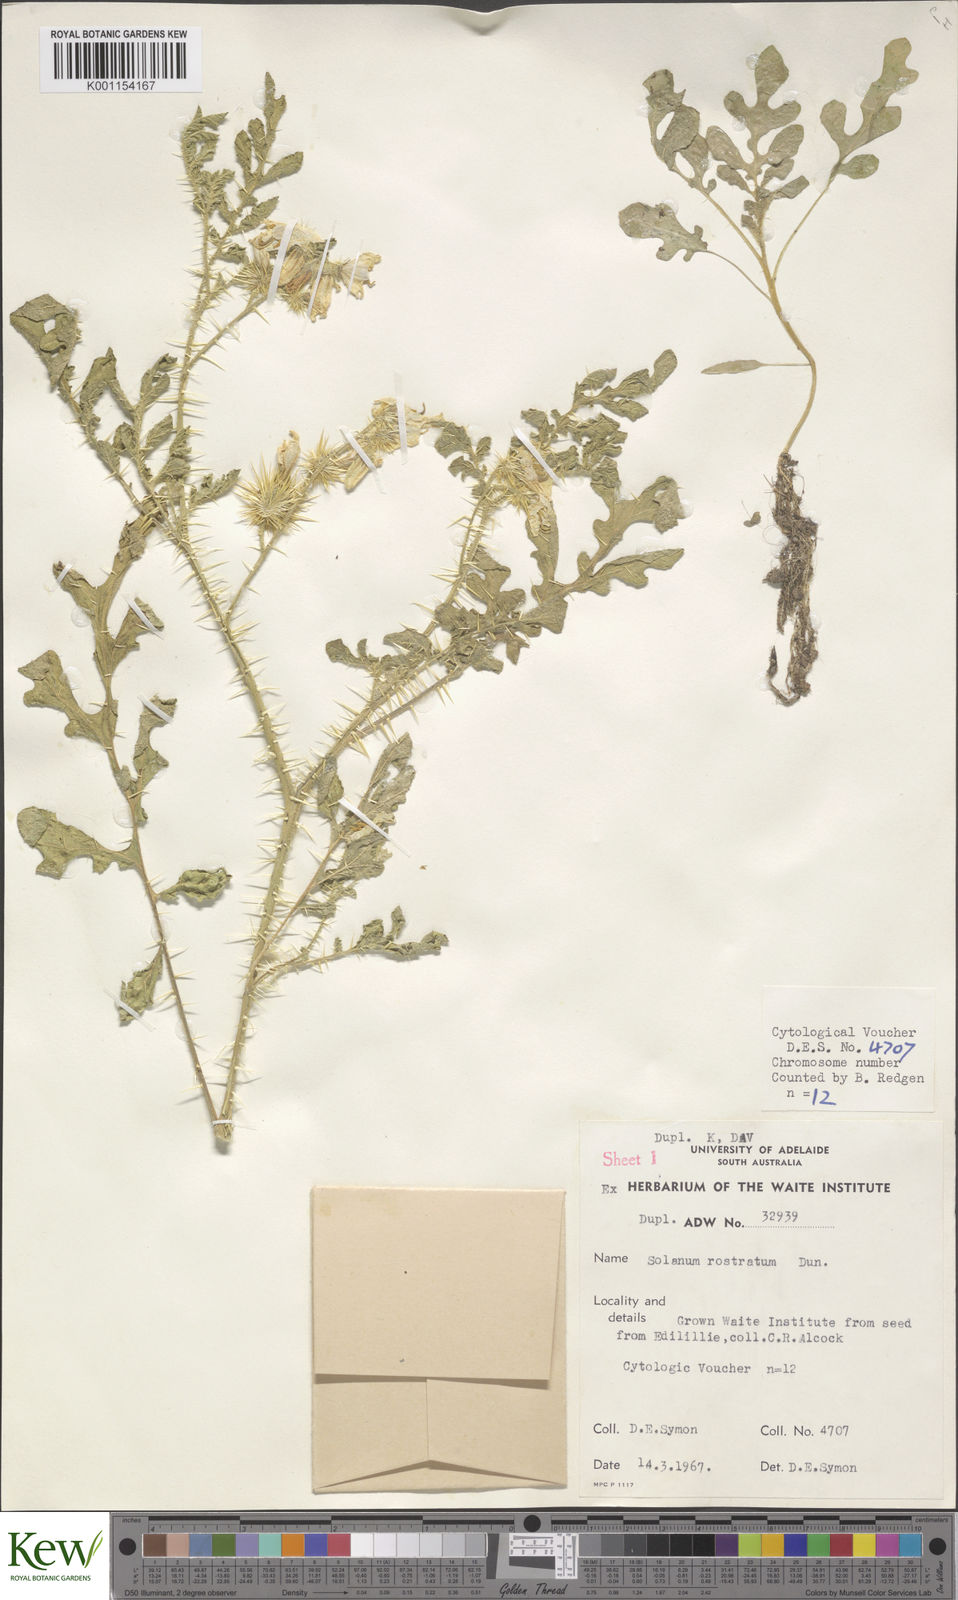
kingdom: Plantae
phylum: Tracheophyta
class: Magnoliopsida
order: Solanales
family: Solanaceae
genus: Solanum
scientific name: Solanum angustifolium
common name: Buffalobur nightshade
